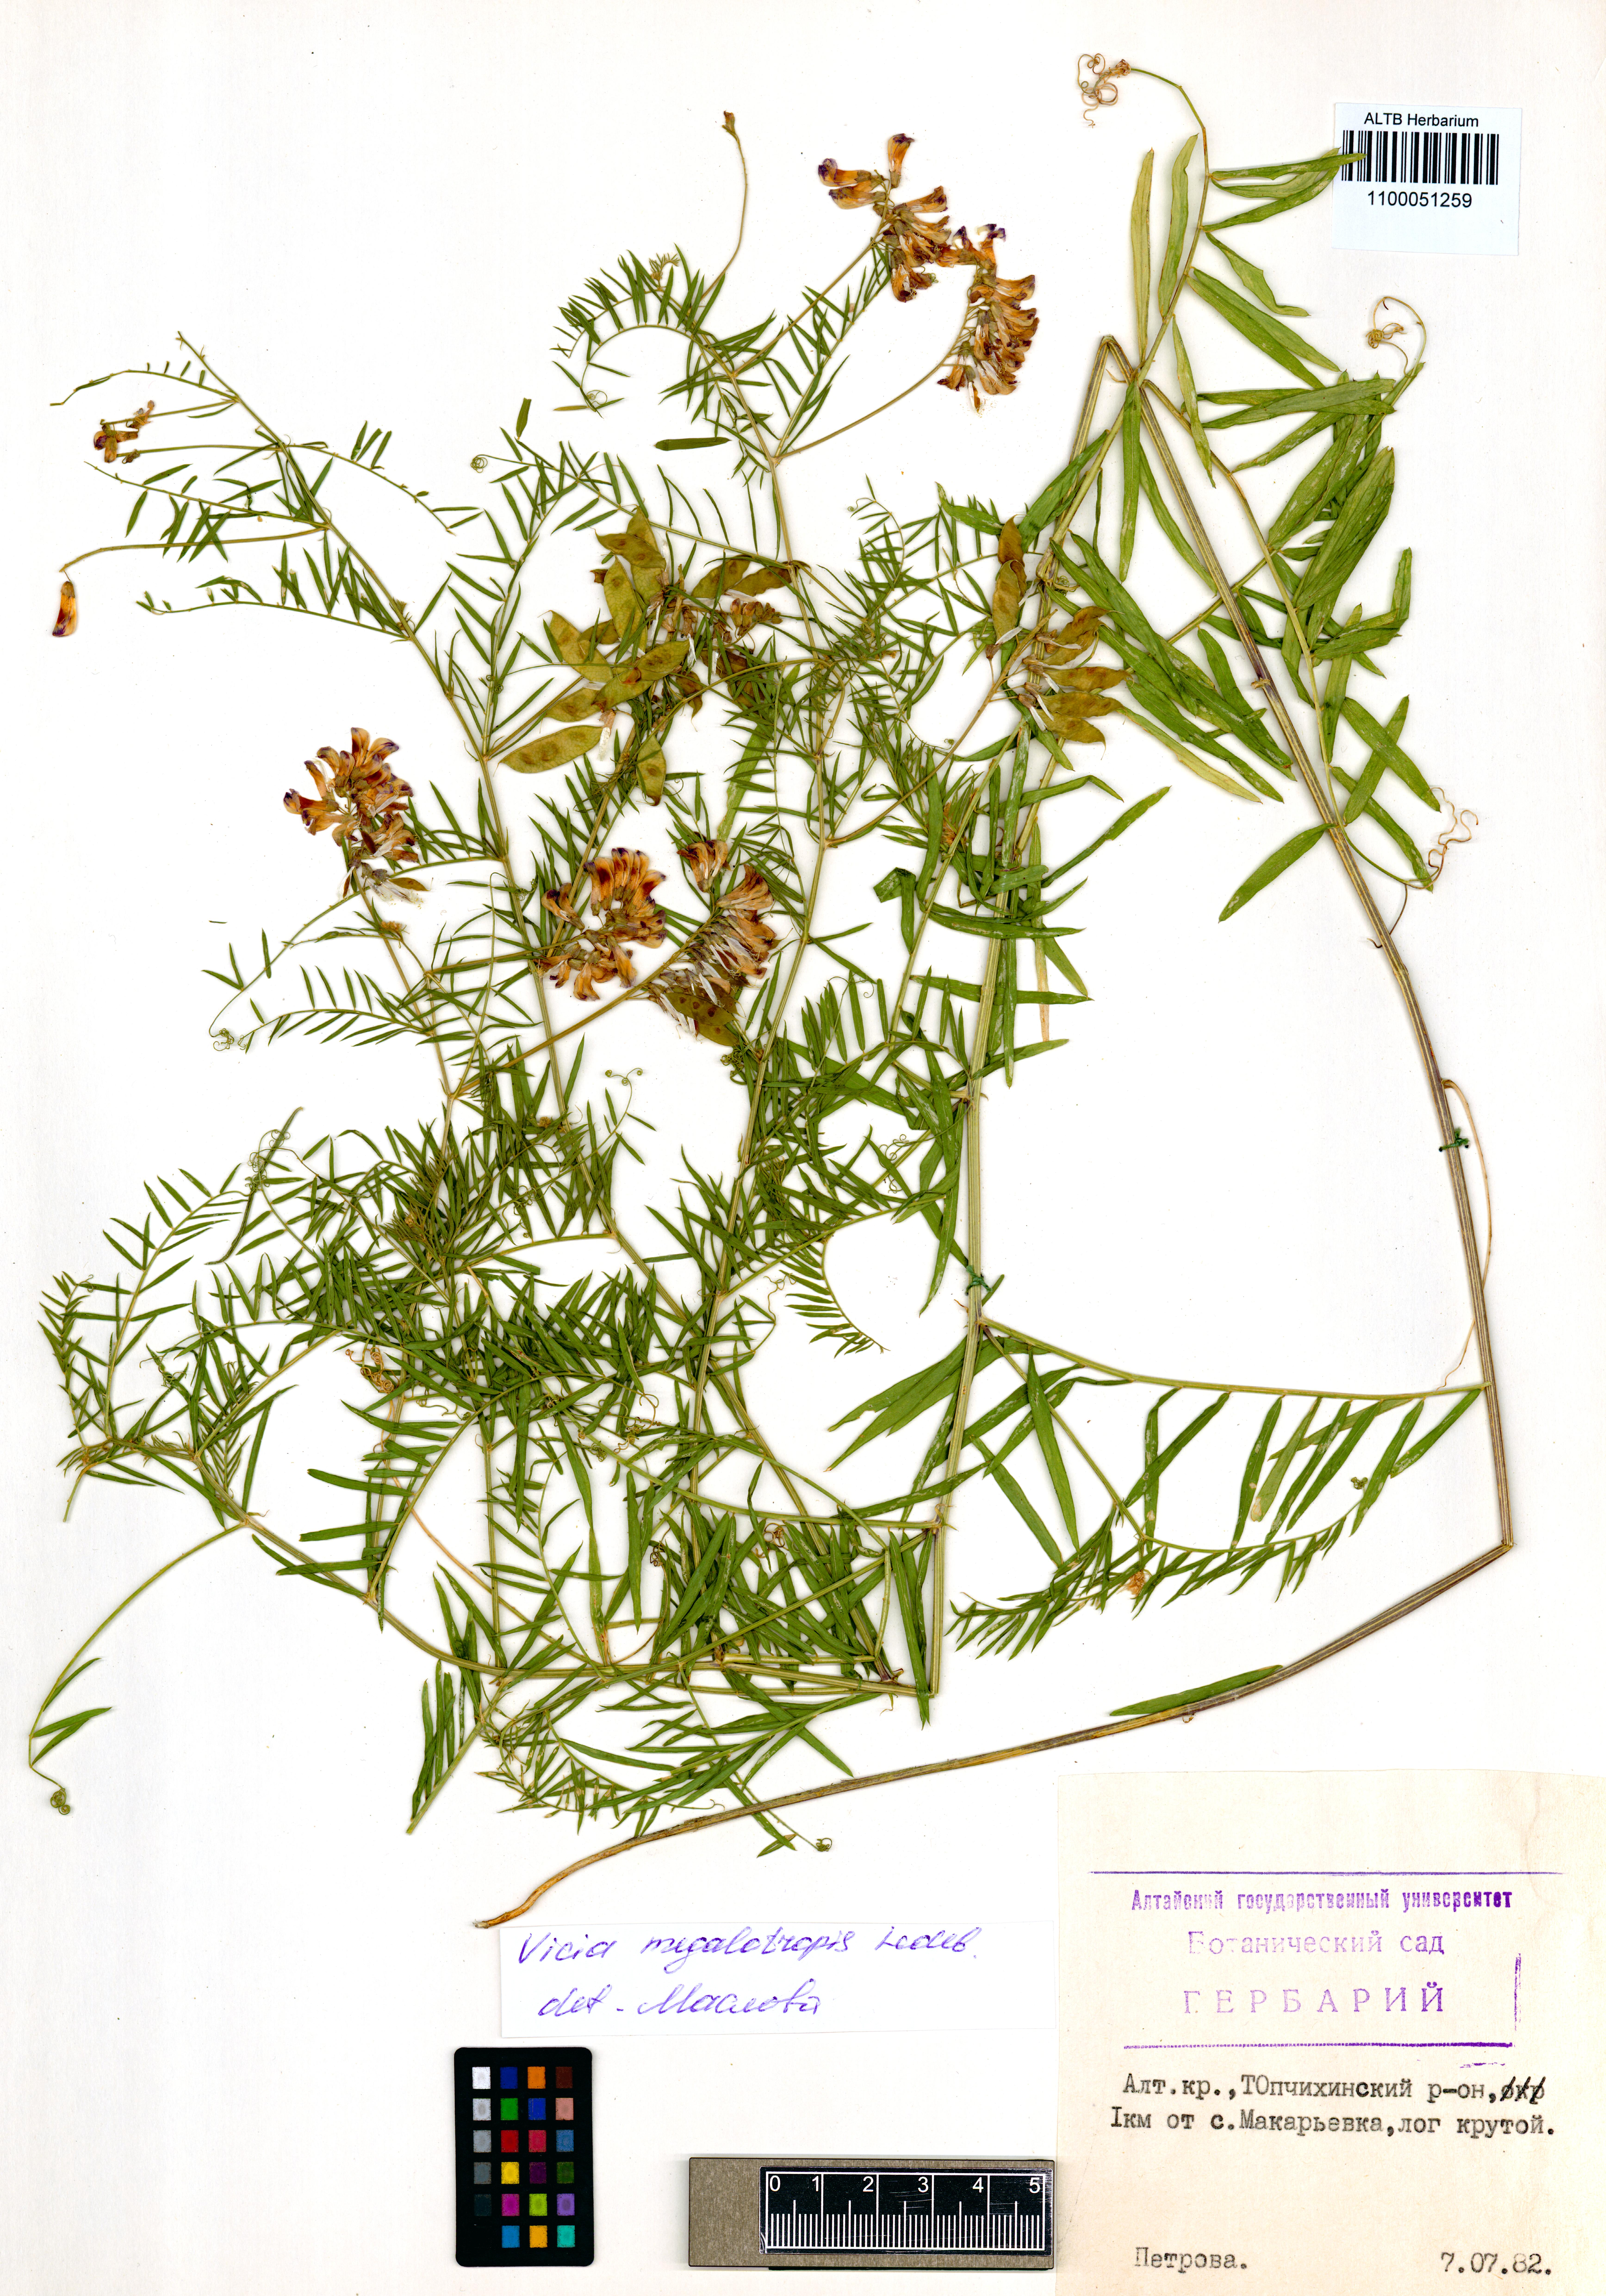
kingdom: Plantae
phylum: Tracheophyta
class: Magnoliopsida
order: Fabales
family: Fabaceae
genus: Vicia
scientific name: Vicia megalotropis
